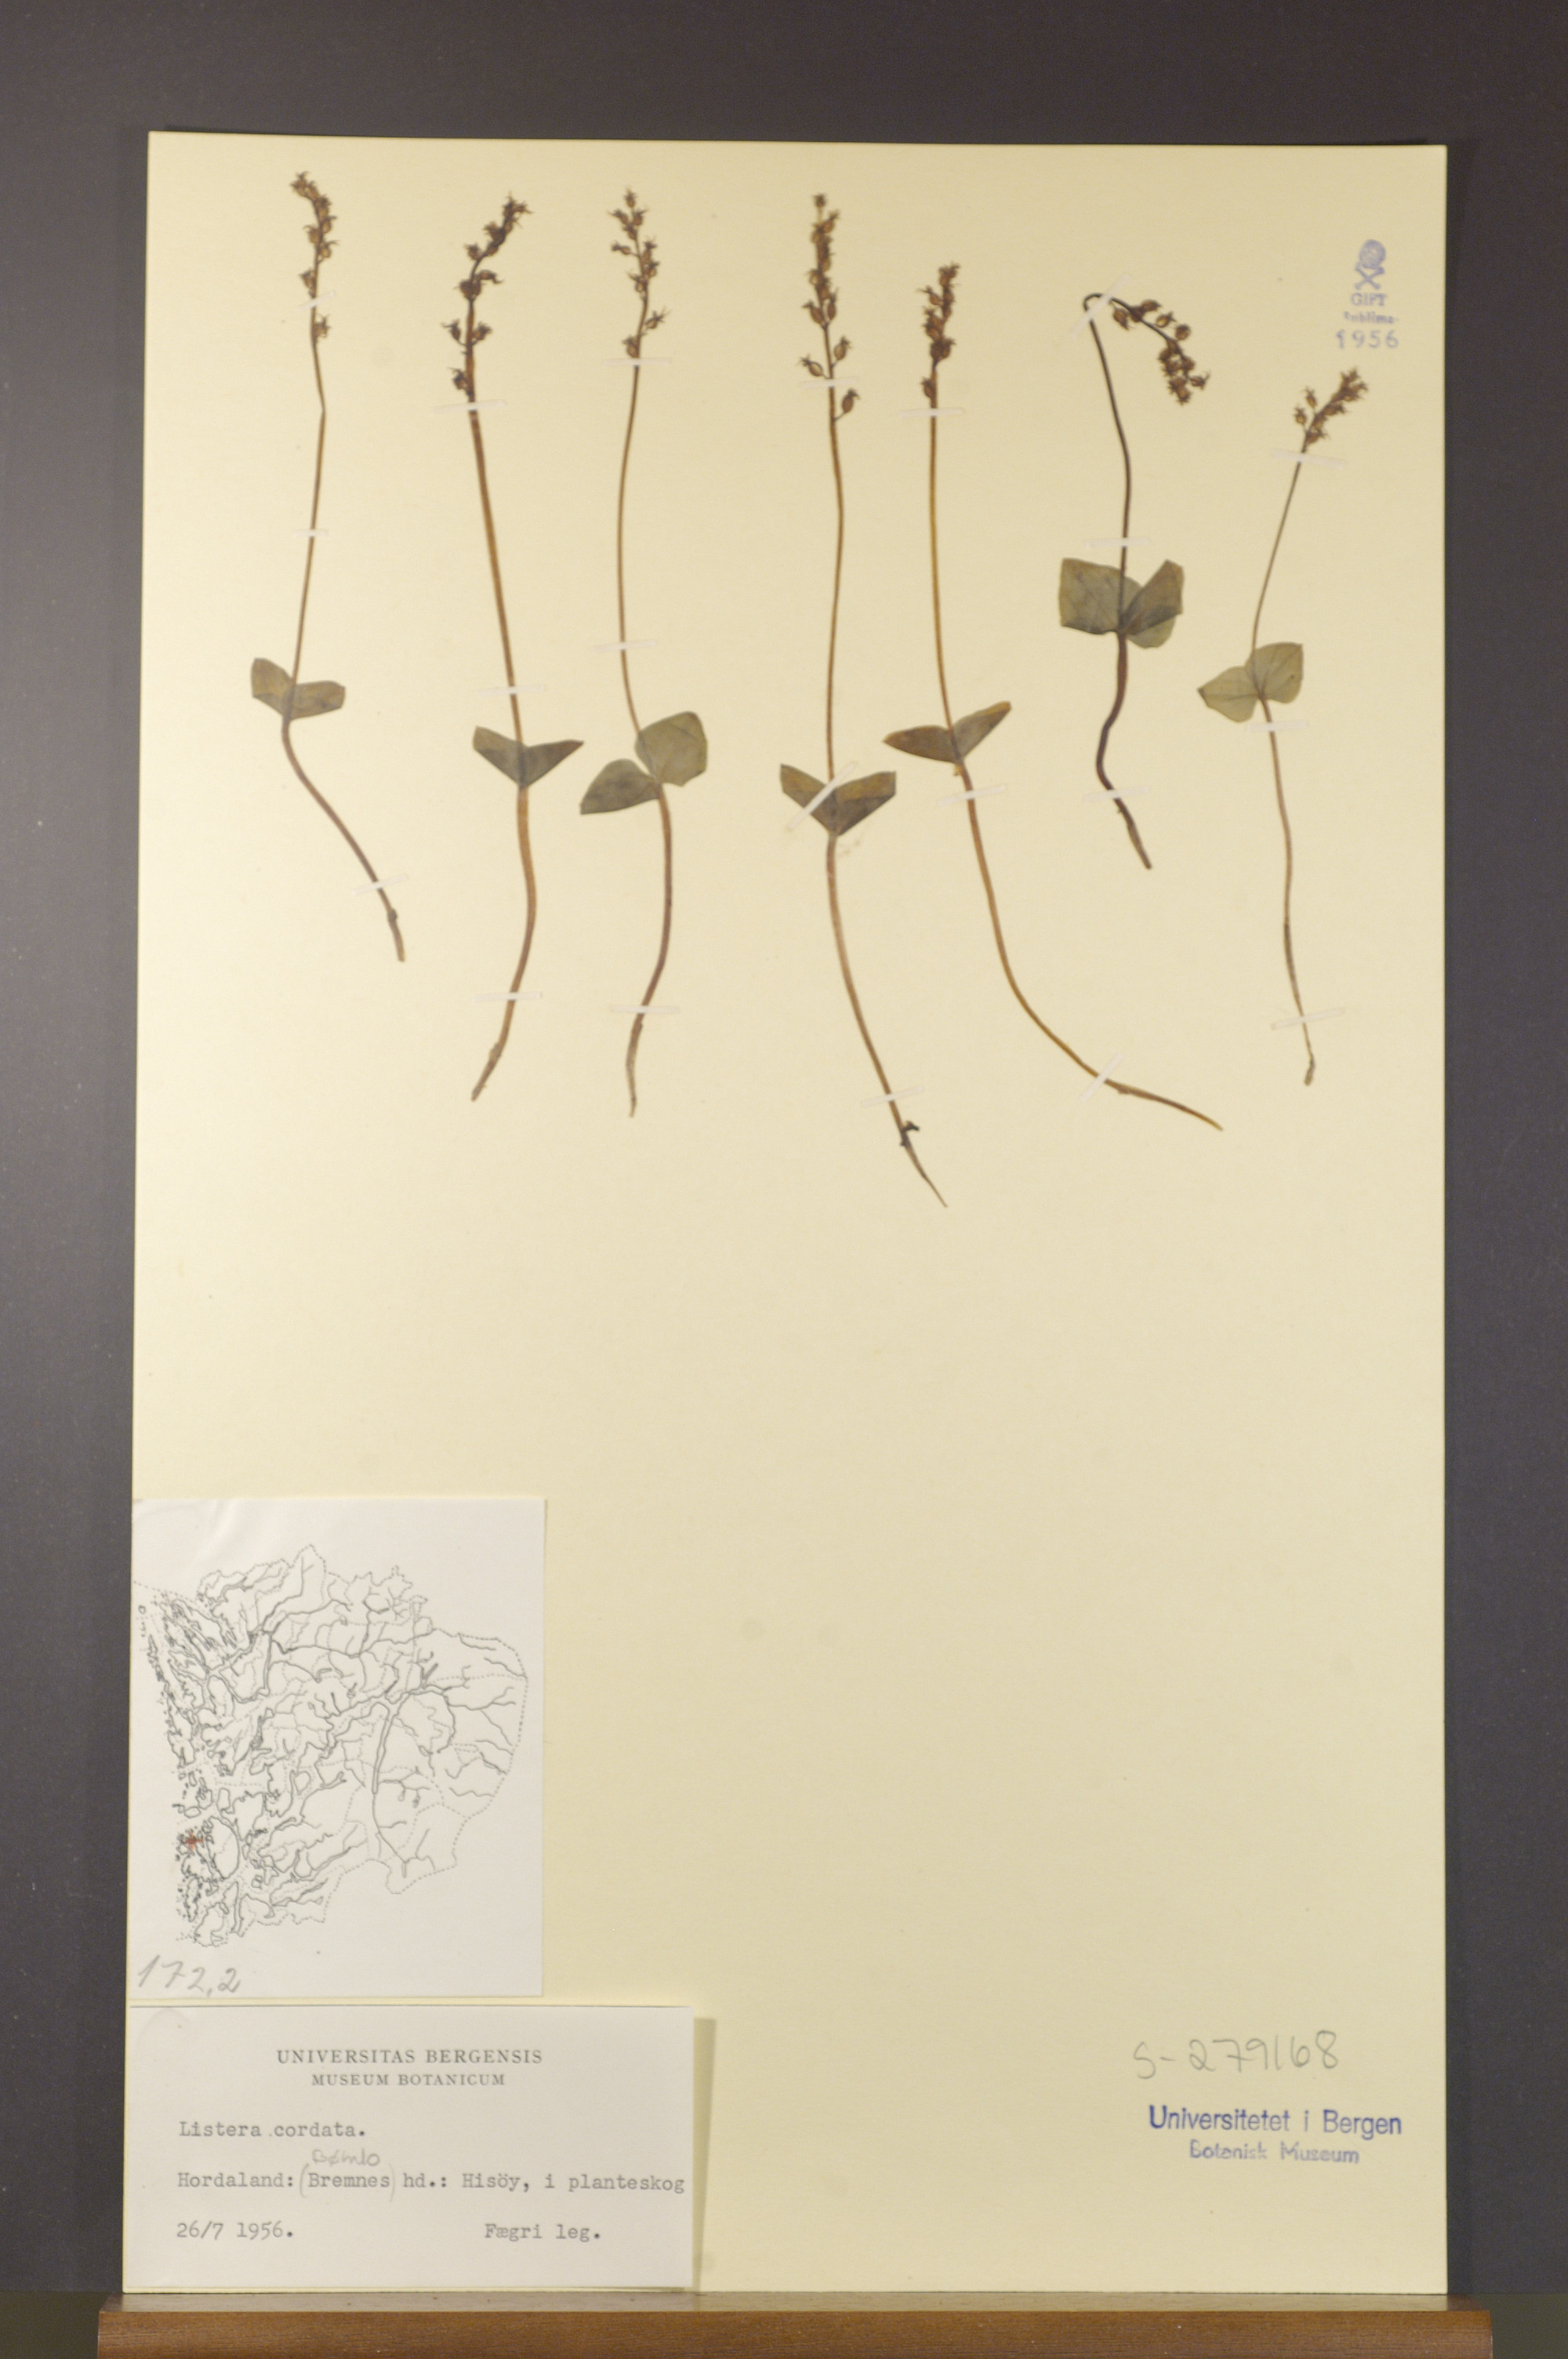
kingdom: Plantae
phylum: Tracheophyta
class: Liliopsida
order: Asparagales
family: Orchidaceae
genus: Neottia
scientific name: Neottia cordata
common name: Lesser twayblade
